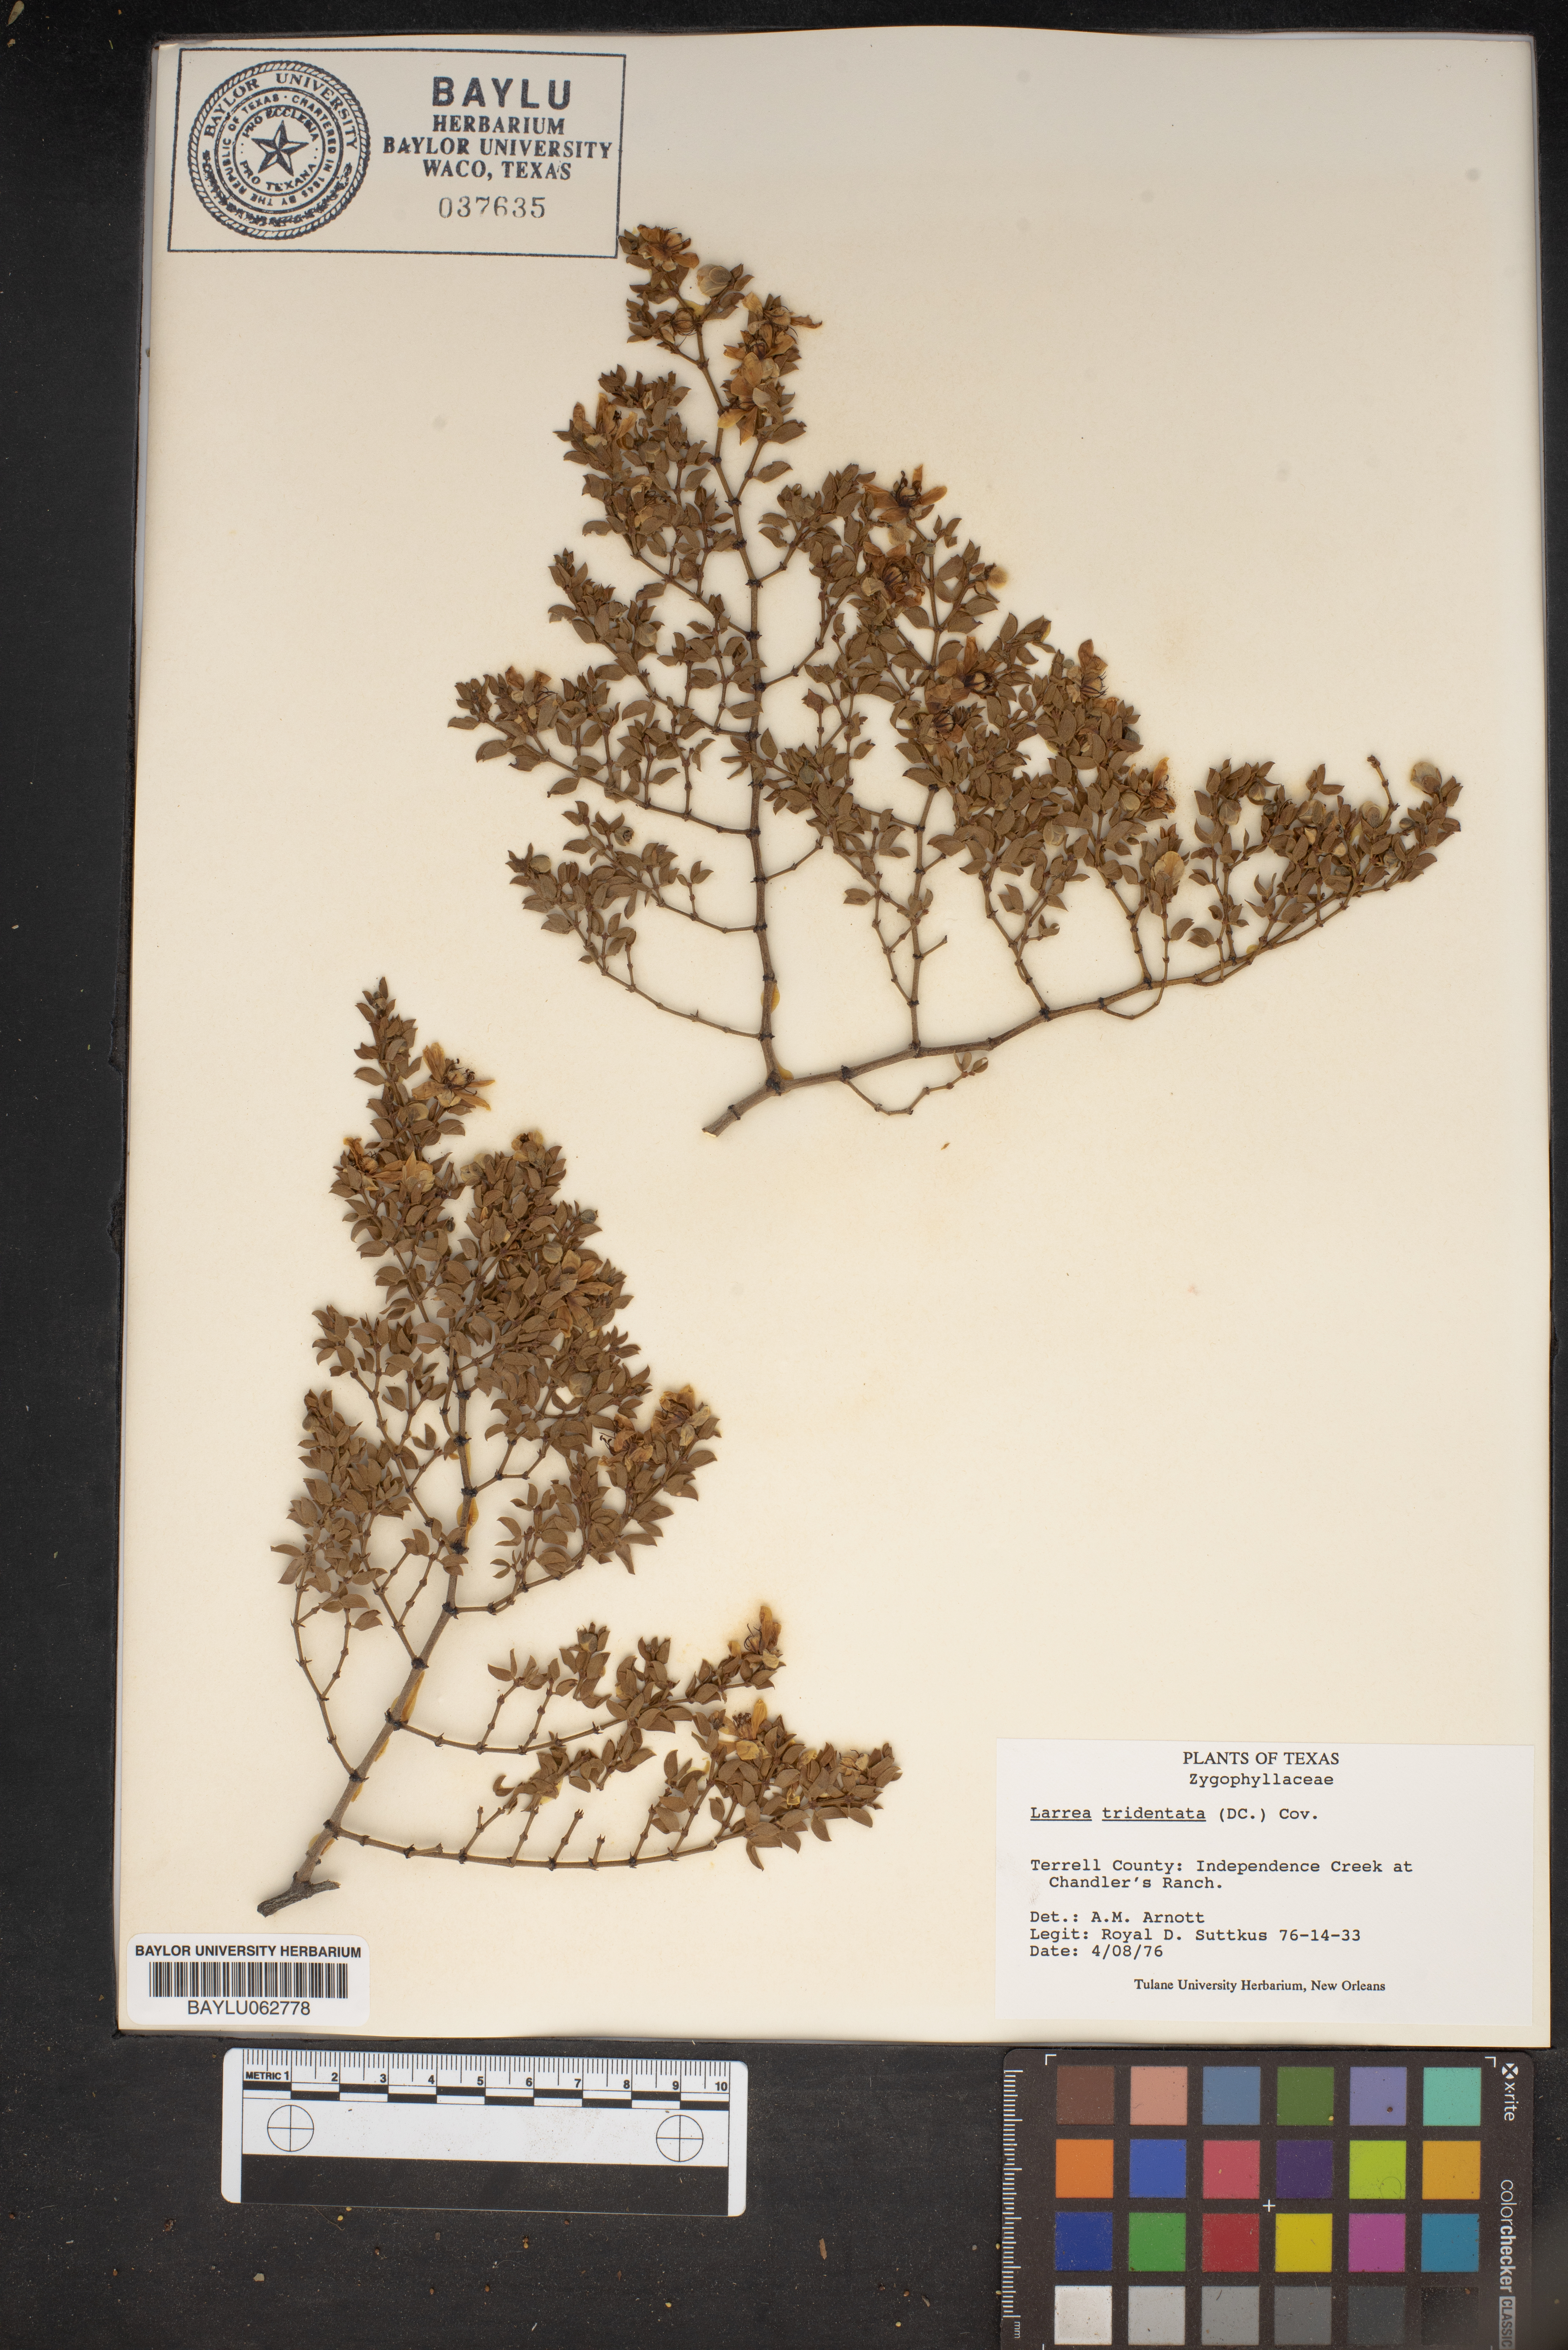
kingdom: Plantae
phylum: Tracheophyta
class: Magnoliopsida
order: Zygophyllales
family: Zygophyllaceae
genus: Larrea
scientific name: Larrea tridentata
